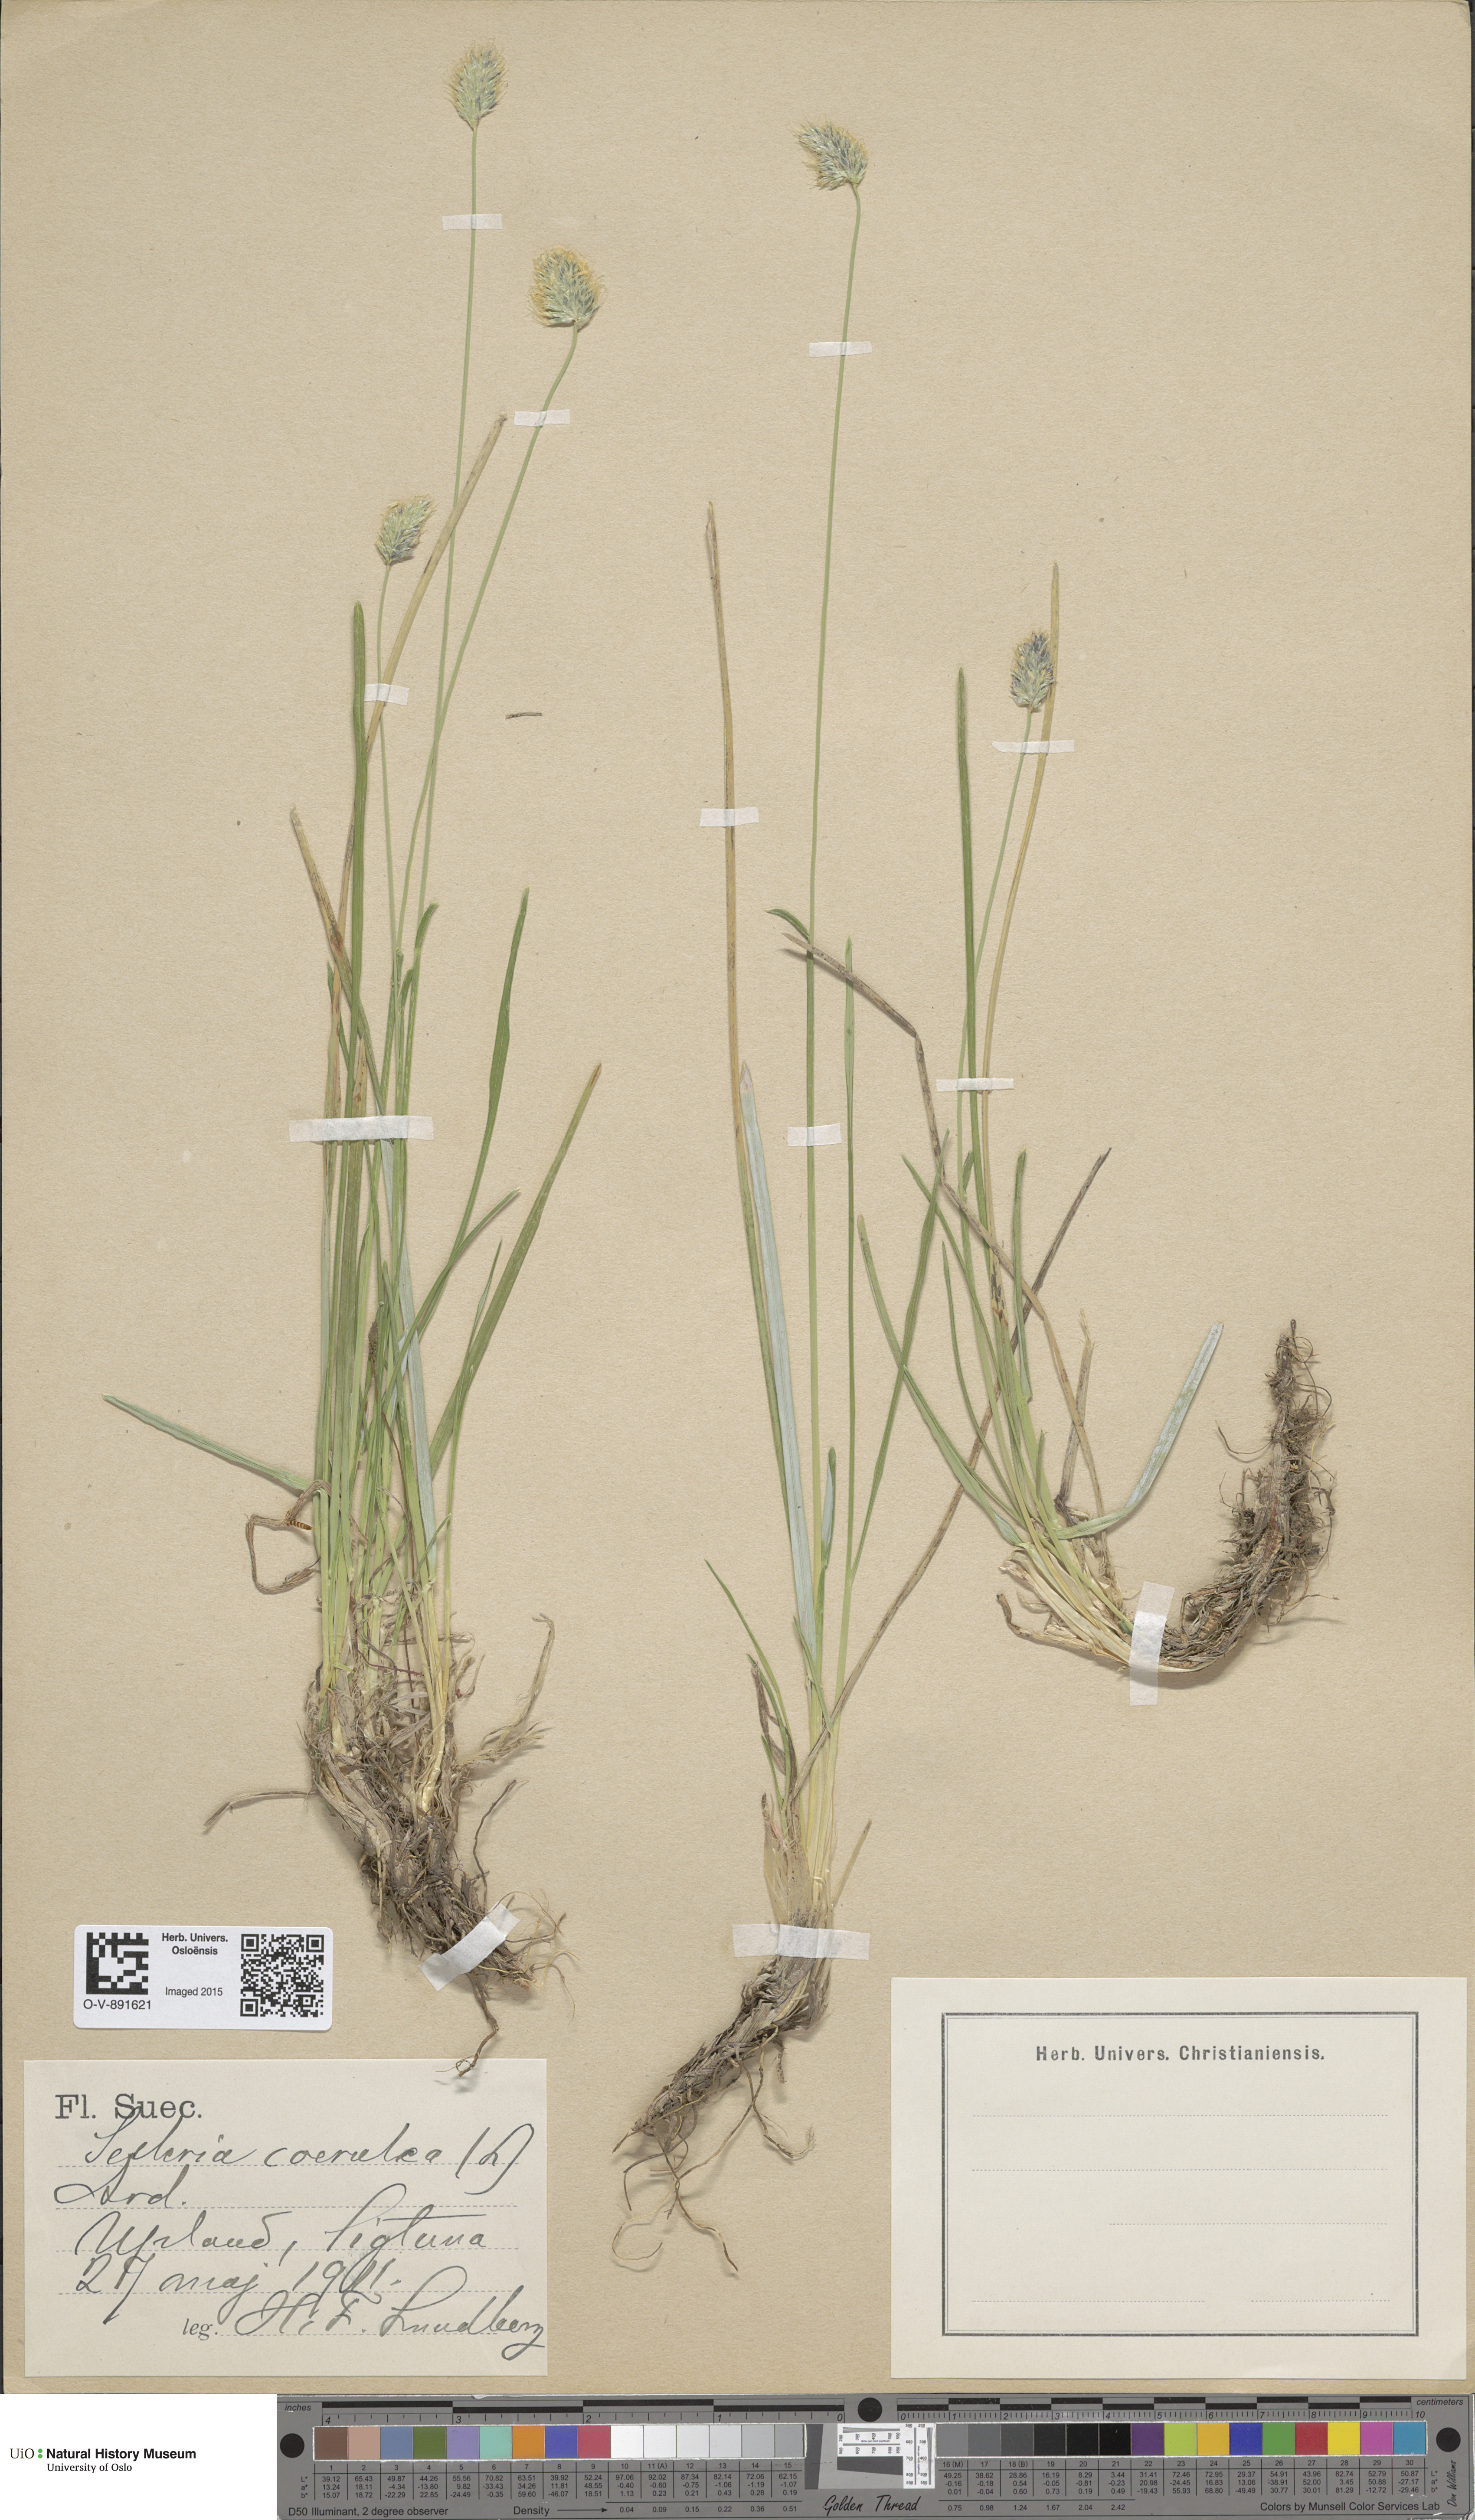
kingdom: Plantae
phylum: Tracheophyta
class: Liliopsida
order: Poales
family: Poaceae
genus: Sesleria
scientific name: Sesleria uliginosa
